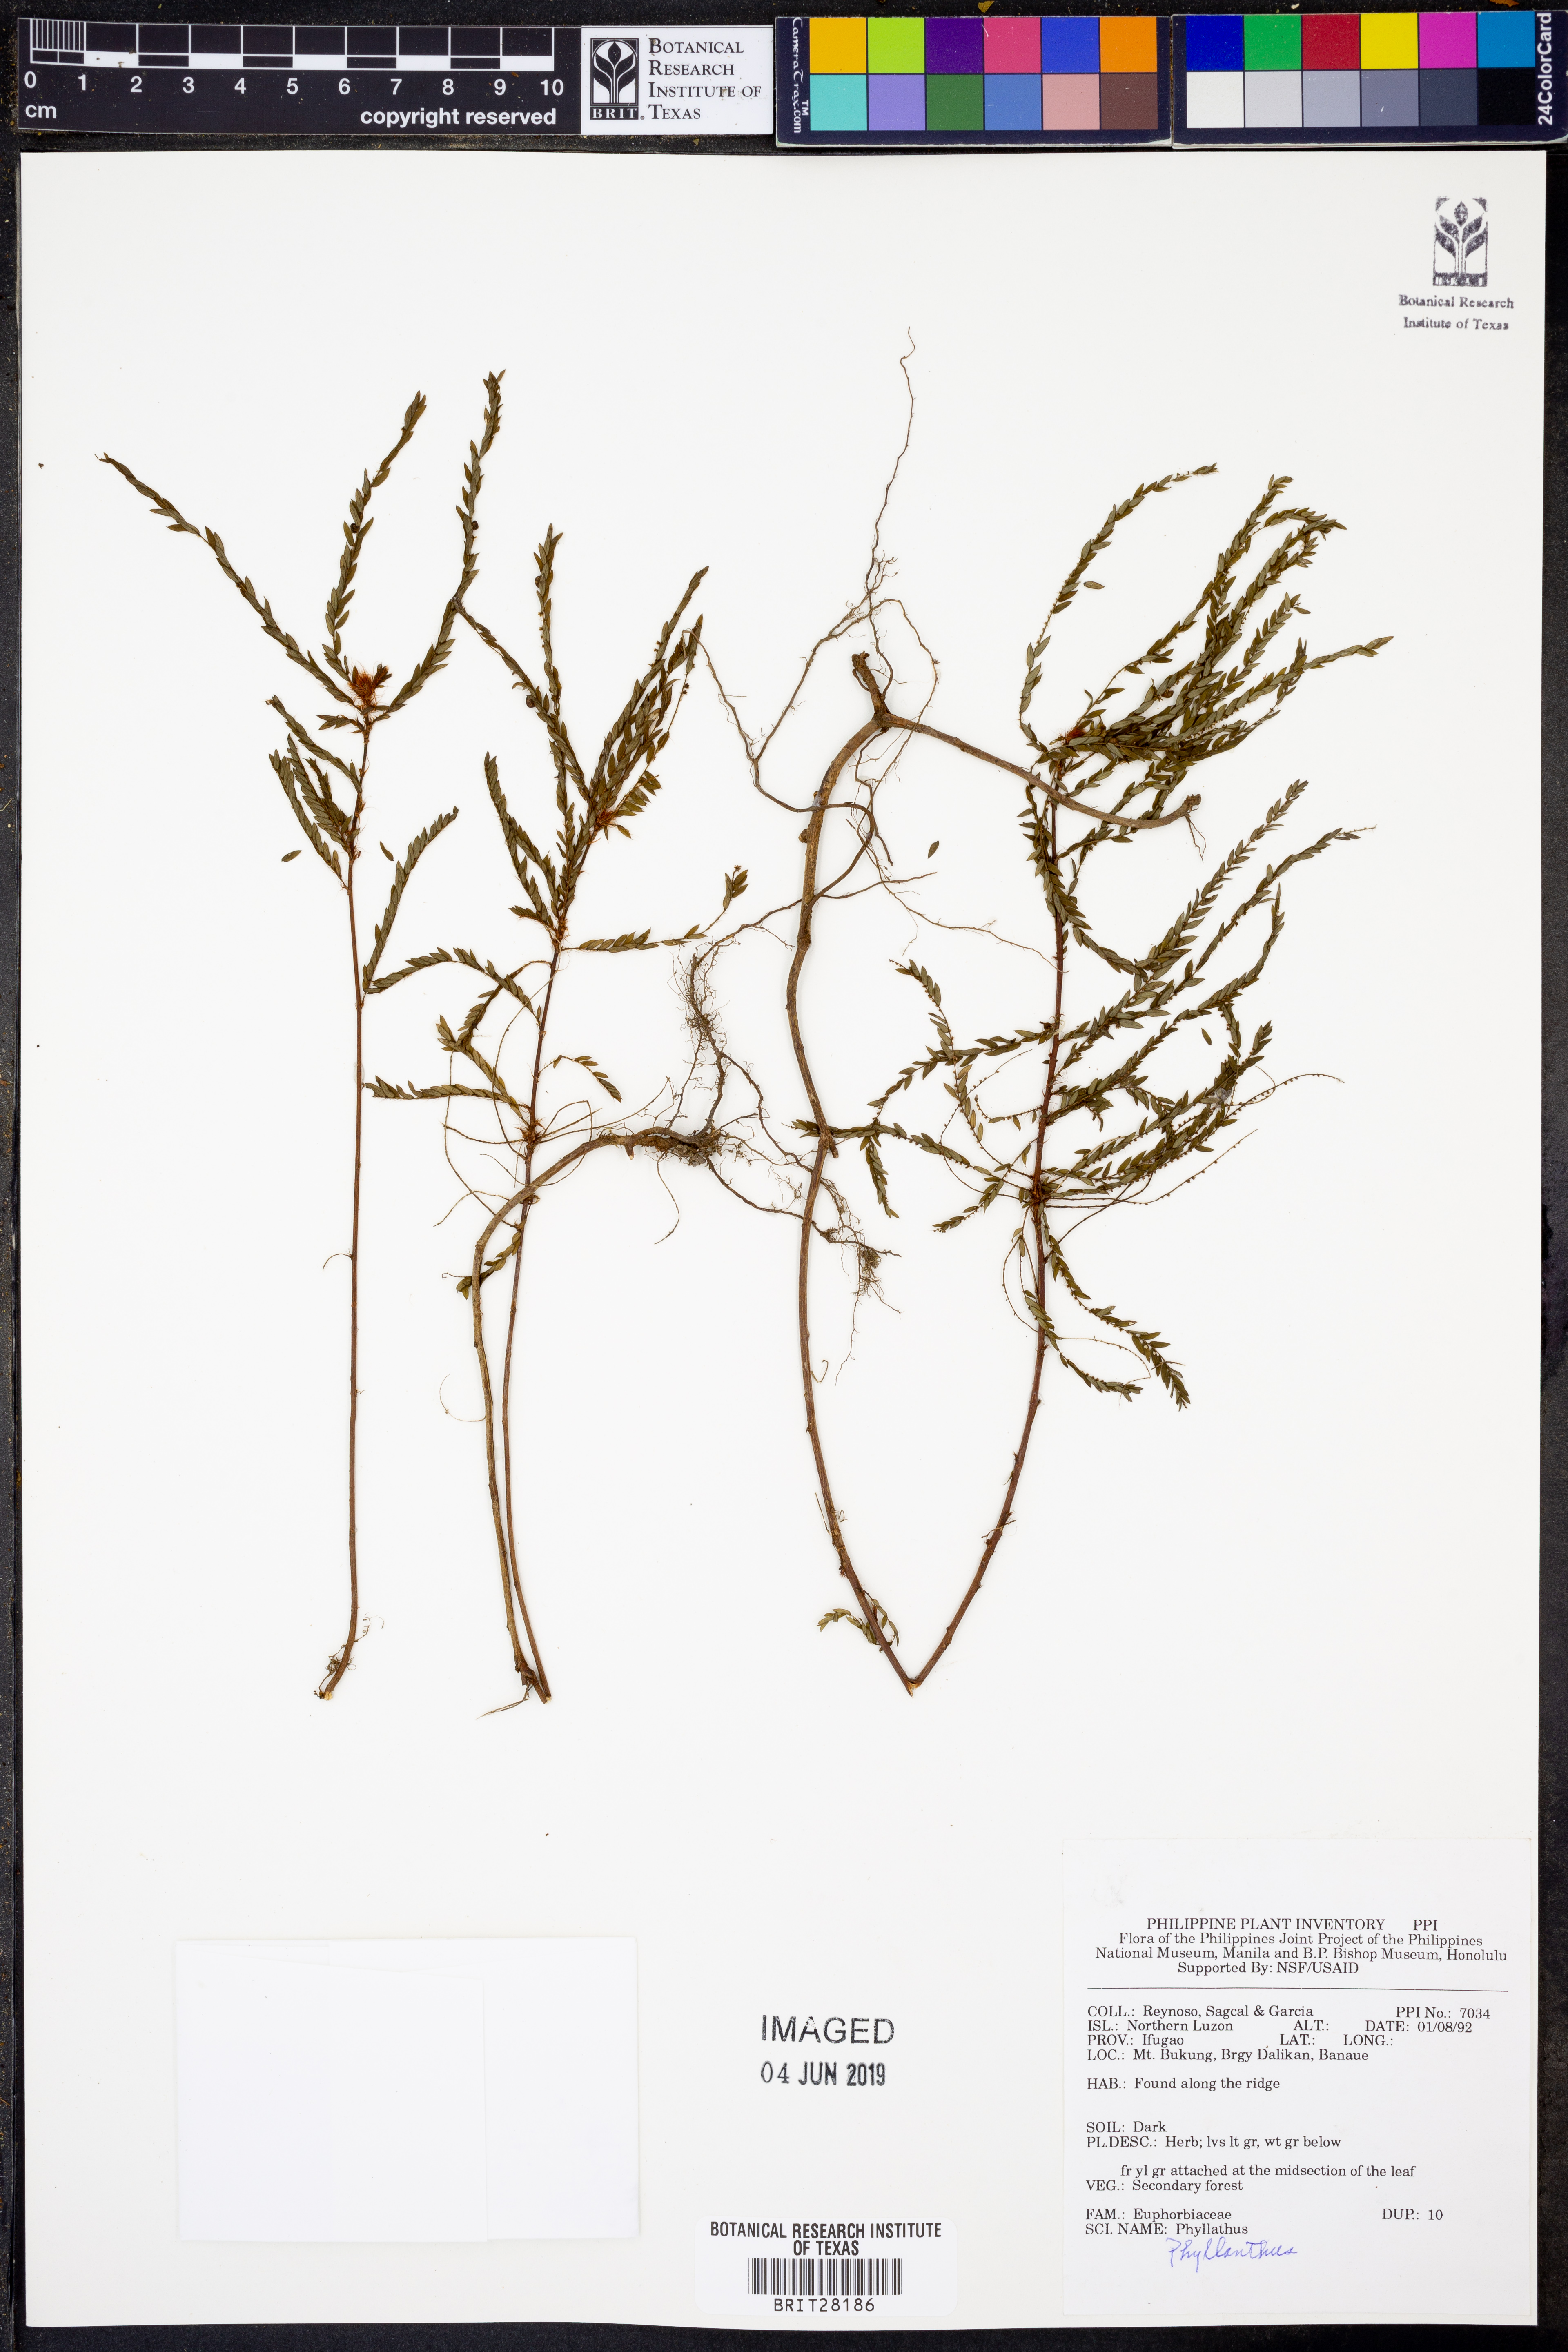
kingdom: Plantae
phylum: Tracheophyta
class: Magnoliopsida
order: Malpighiales
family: Phyllanthaceae
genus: Phyllanthus
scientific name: Phyllanthus
